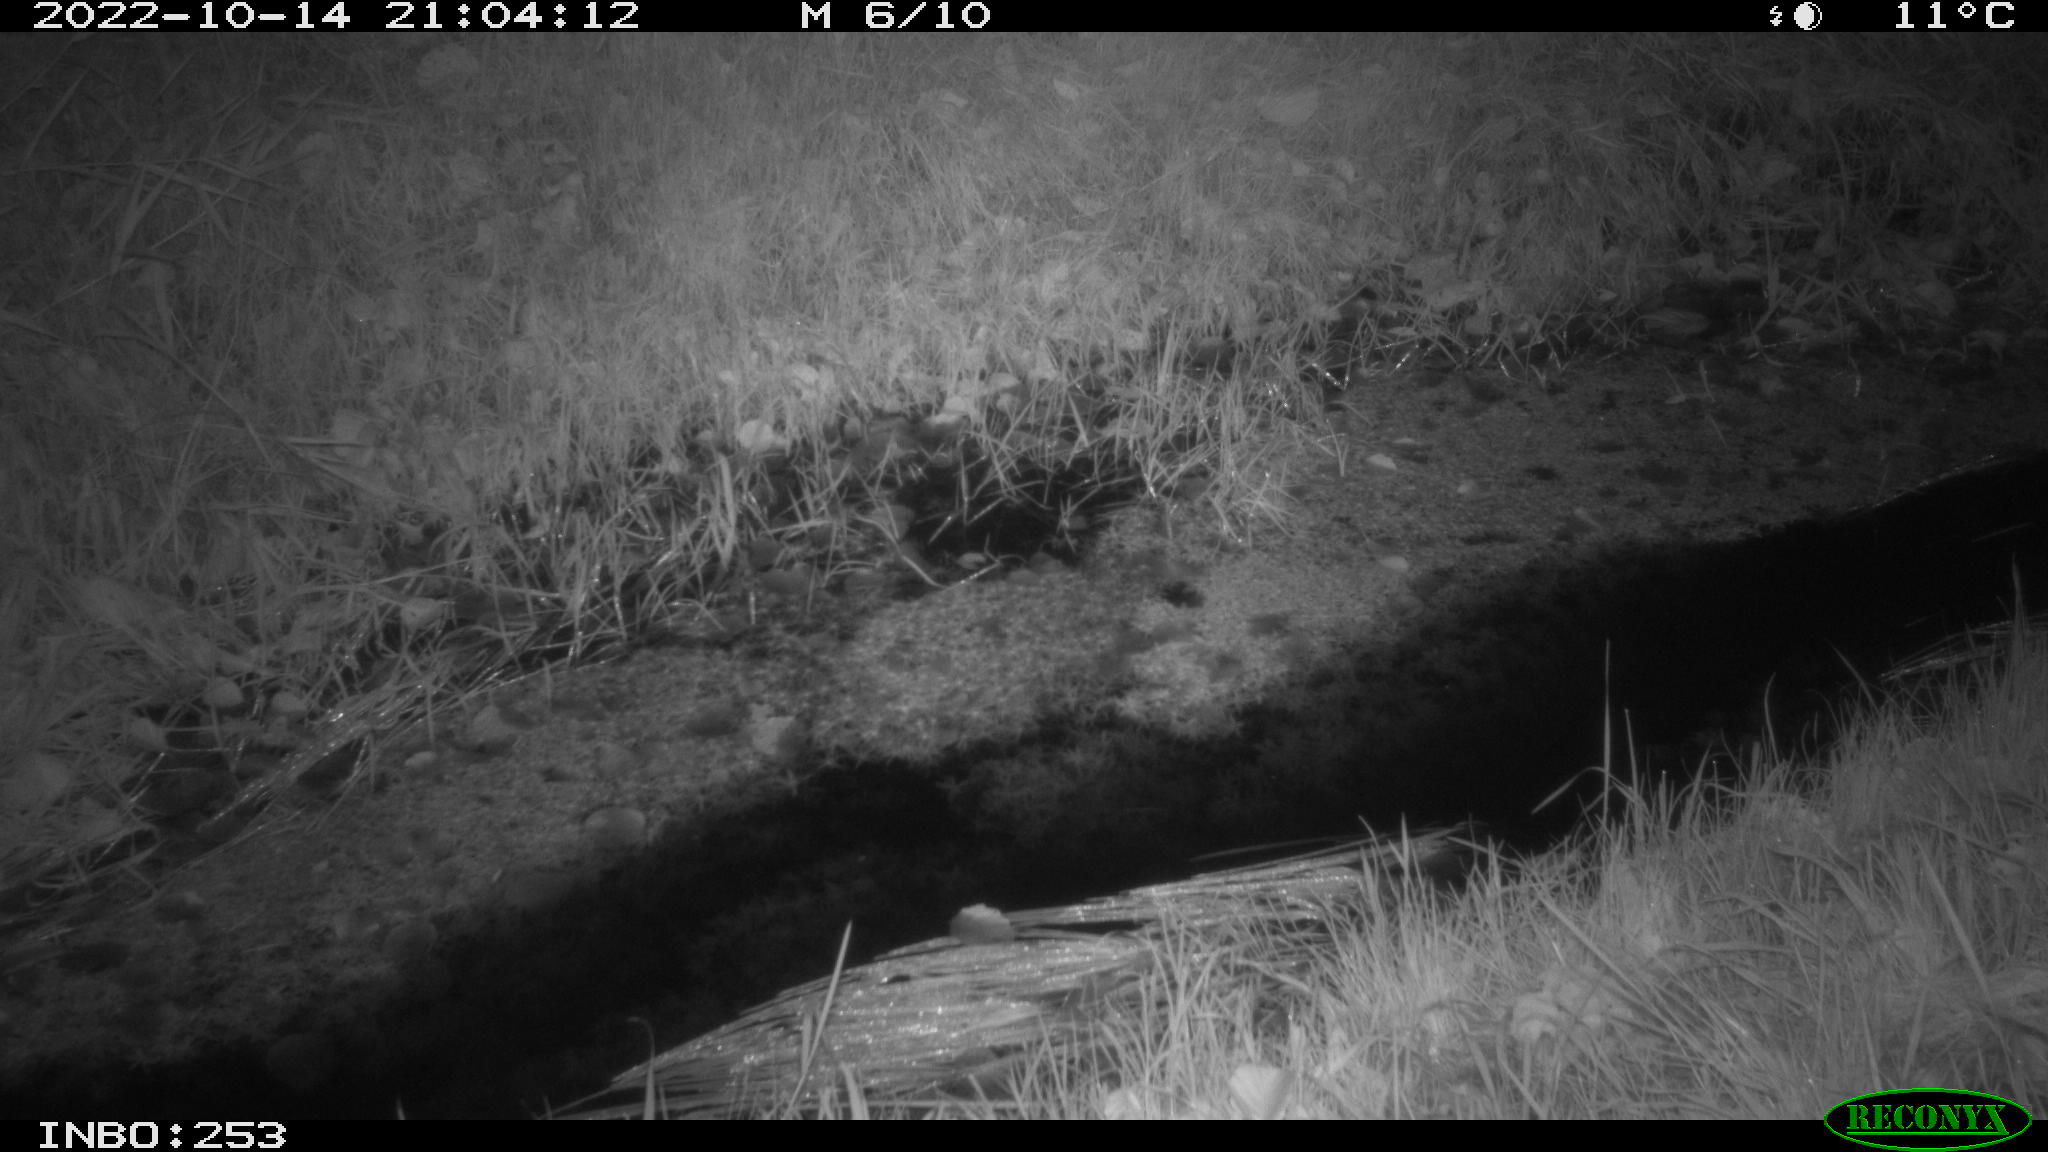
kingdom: Animalia
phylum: Chordata
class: Mammalia
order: Carnivora
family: Canidae
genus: Vulpes
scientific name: Vulpes vulpes
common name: Red fox
